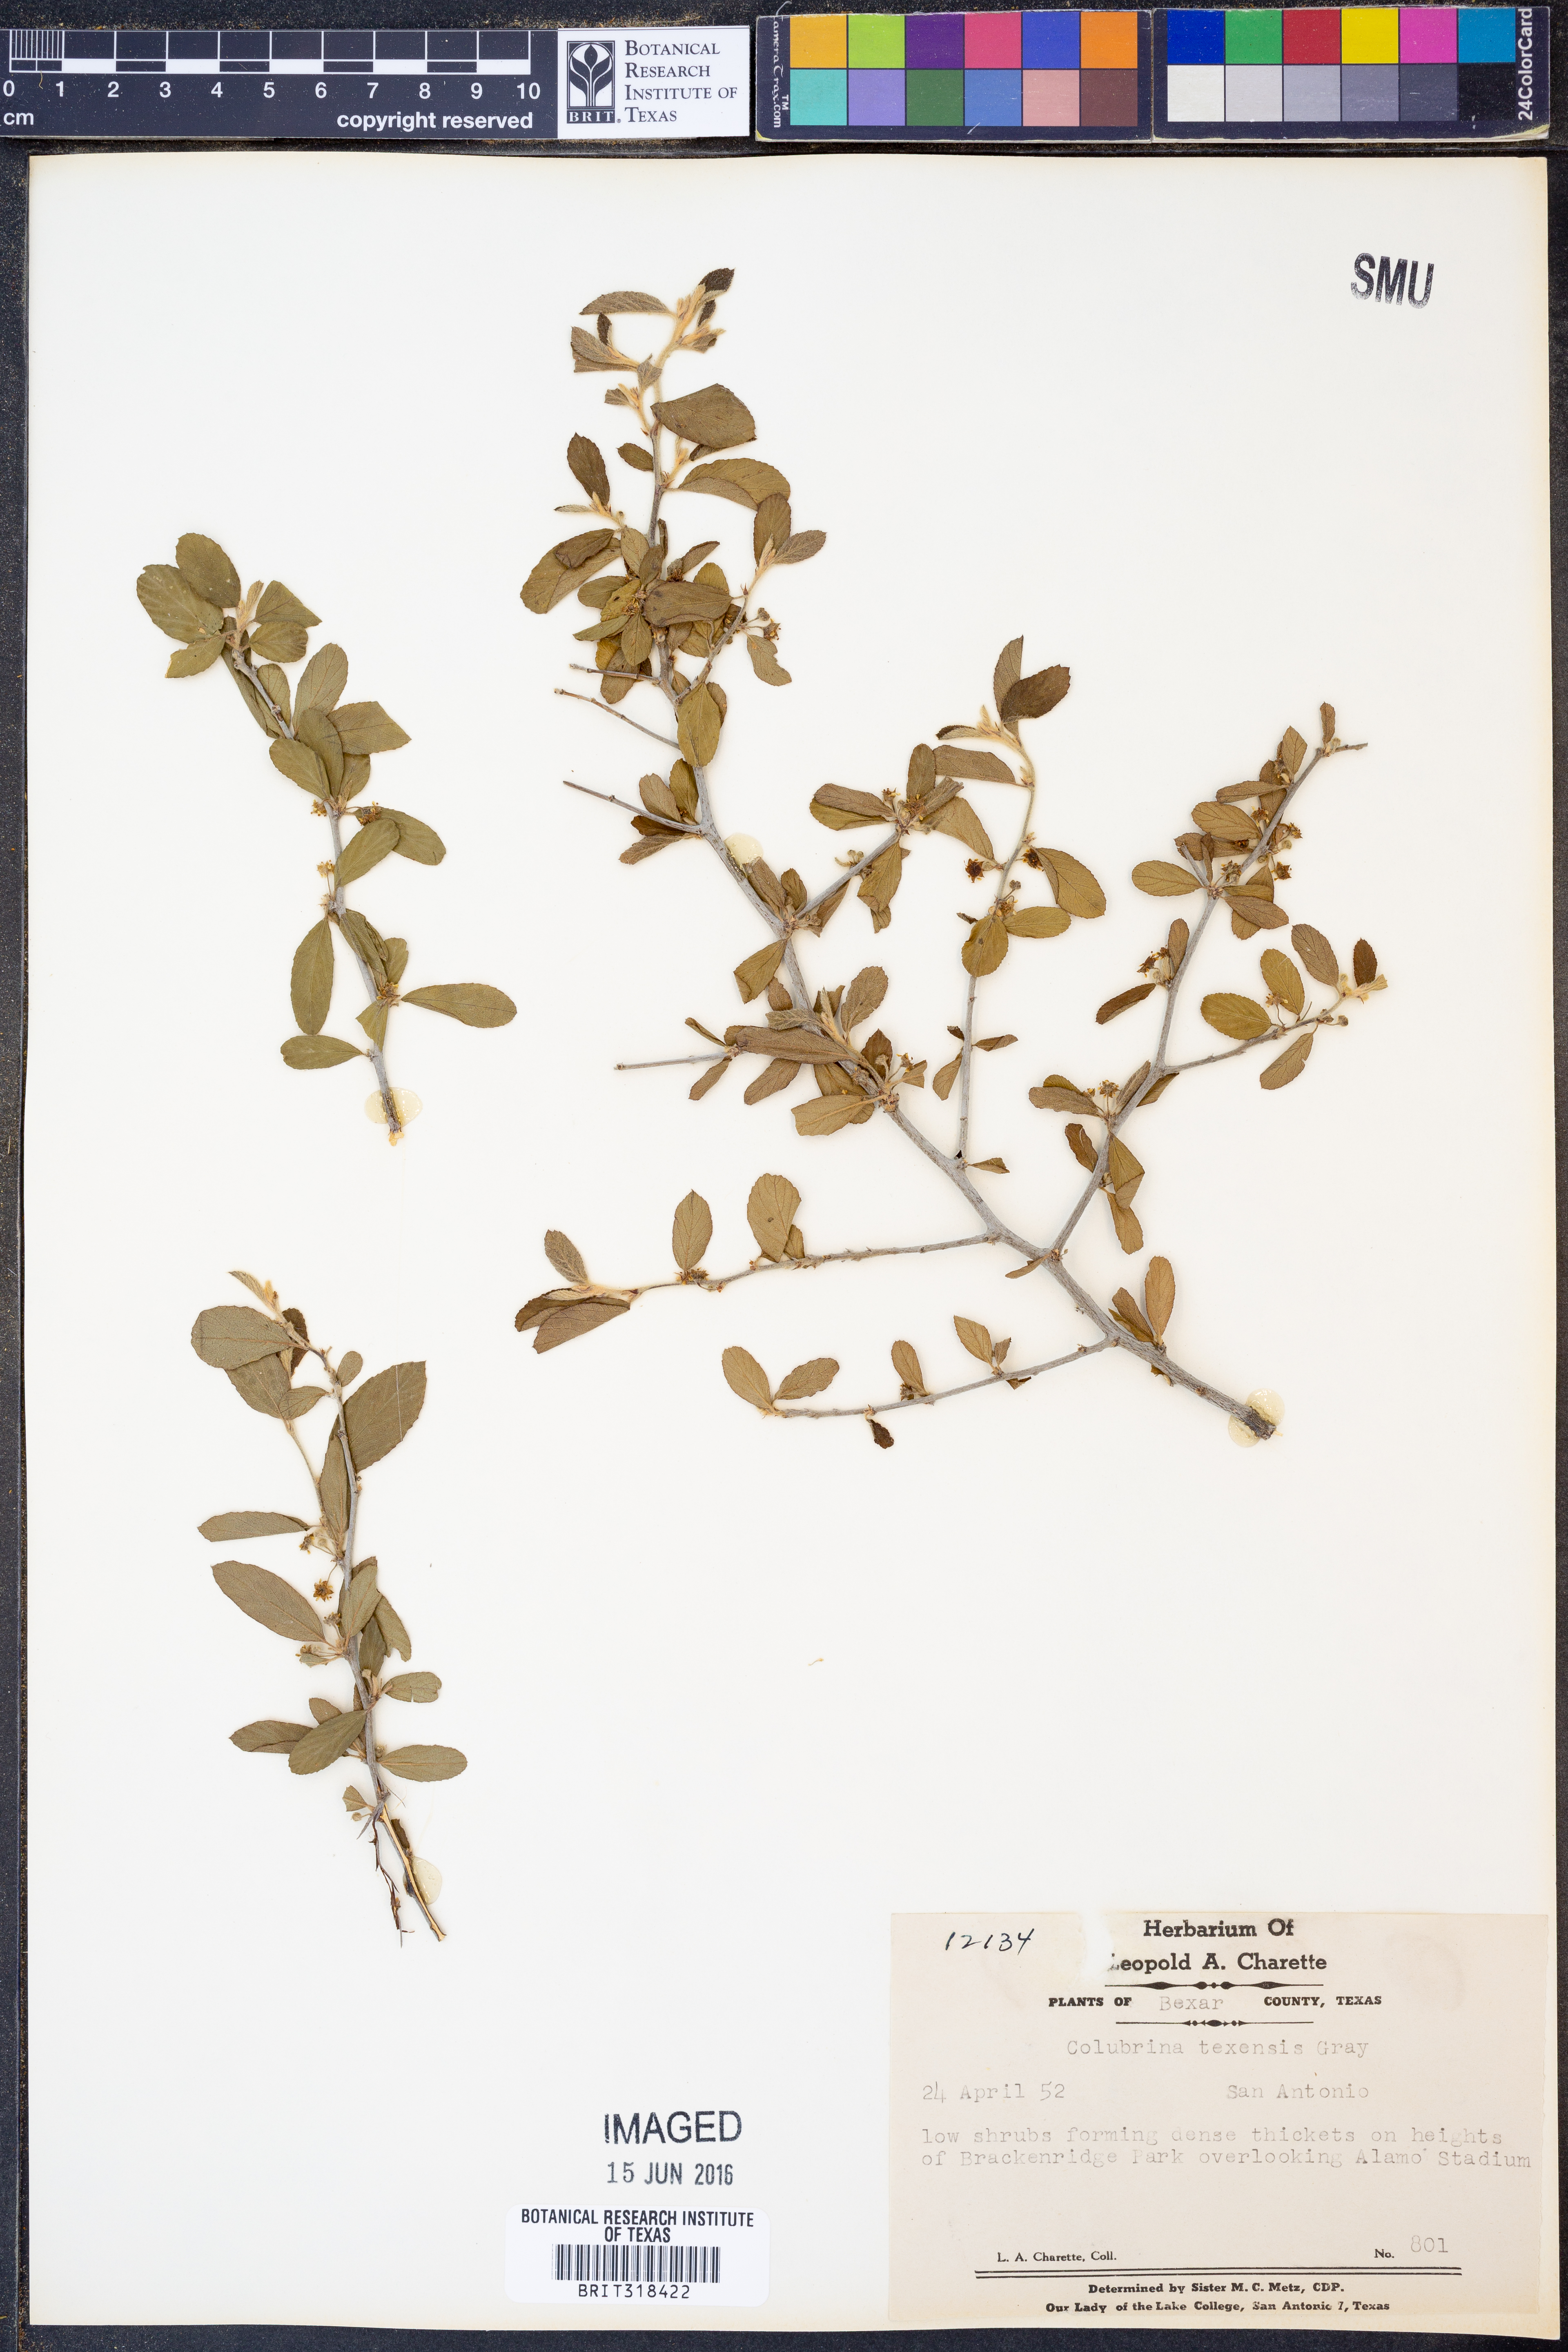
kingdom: Plantae
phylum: Tracheophyta
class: Magnoliopsida
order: Rosales
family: Rhamnaceae
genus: Colubrina
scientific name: Colubrina texensis
